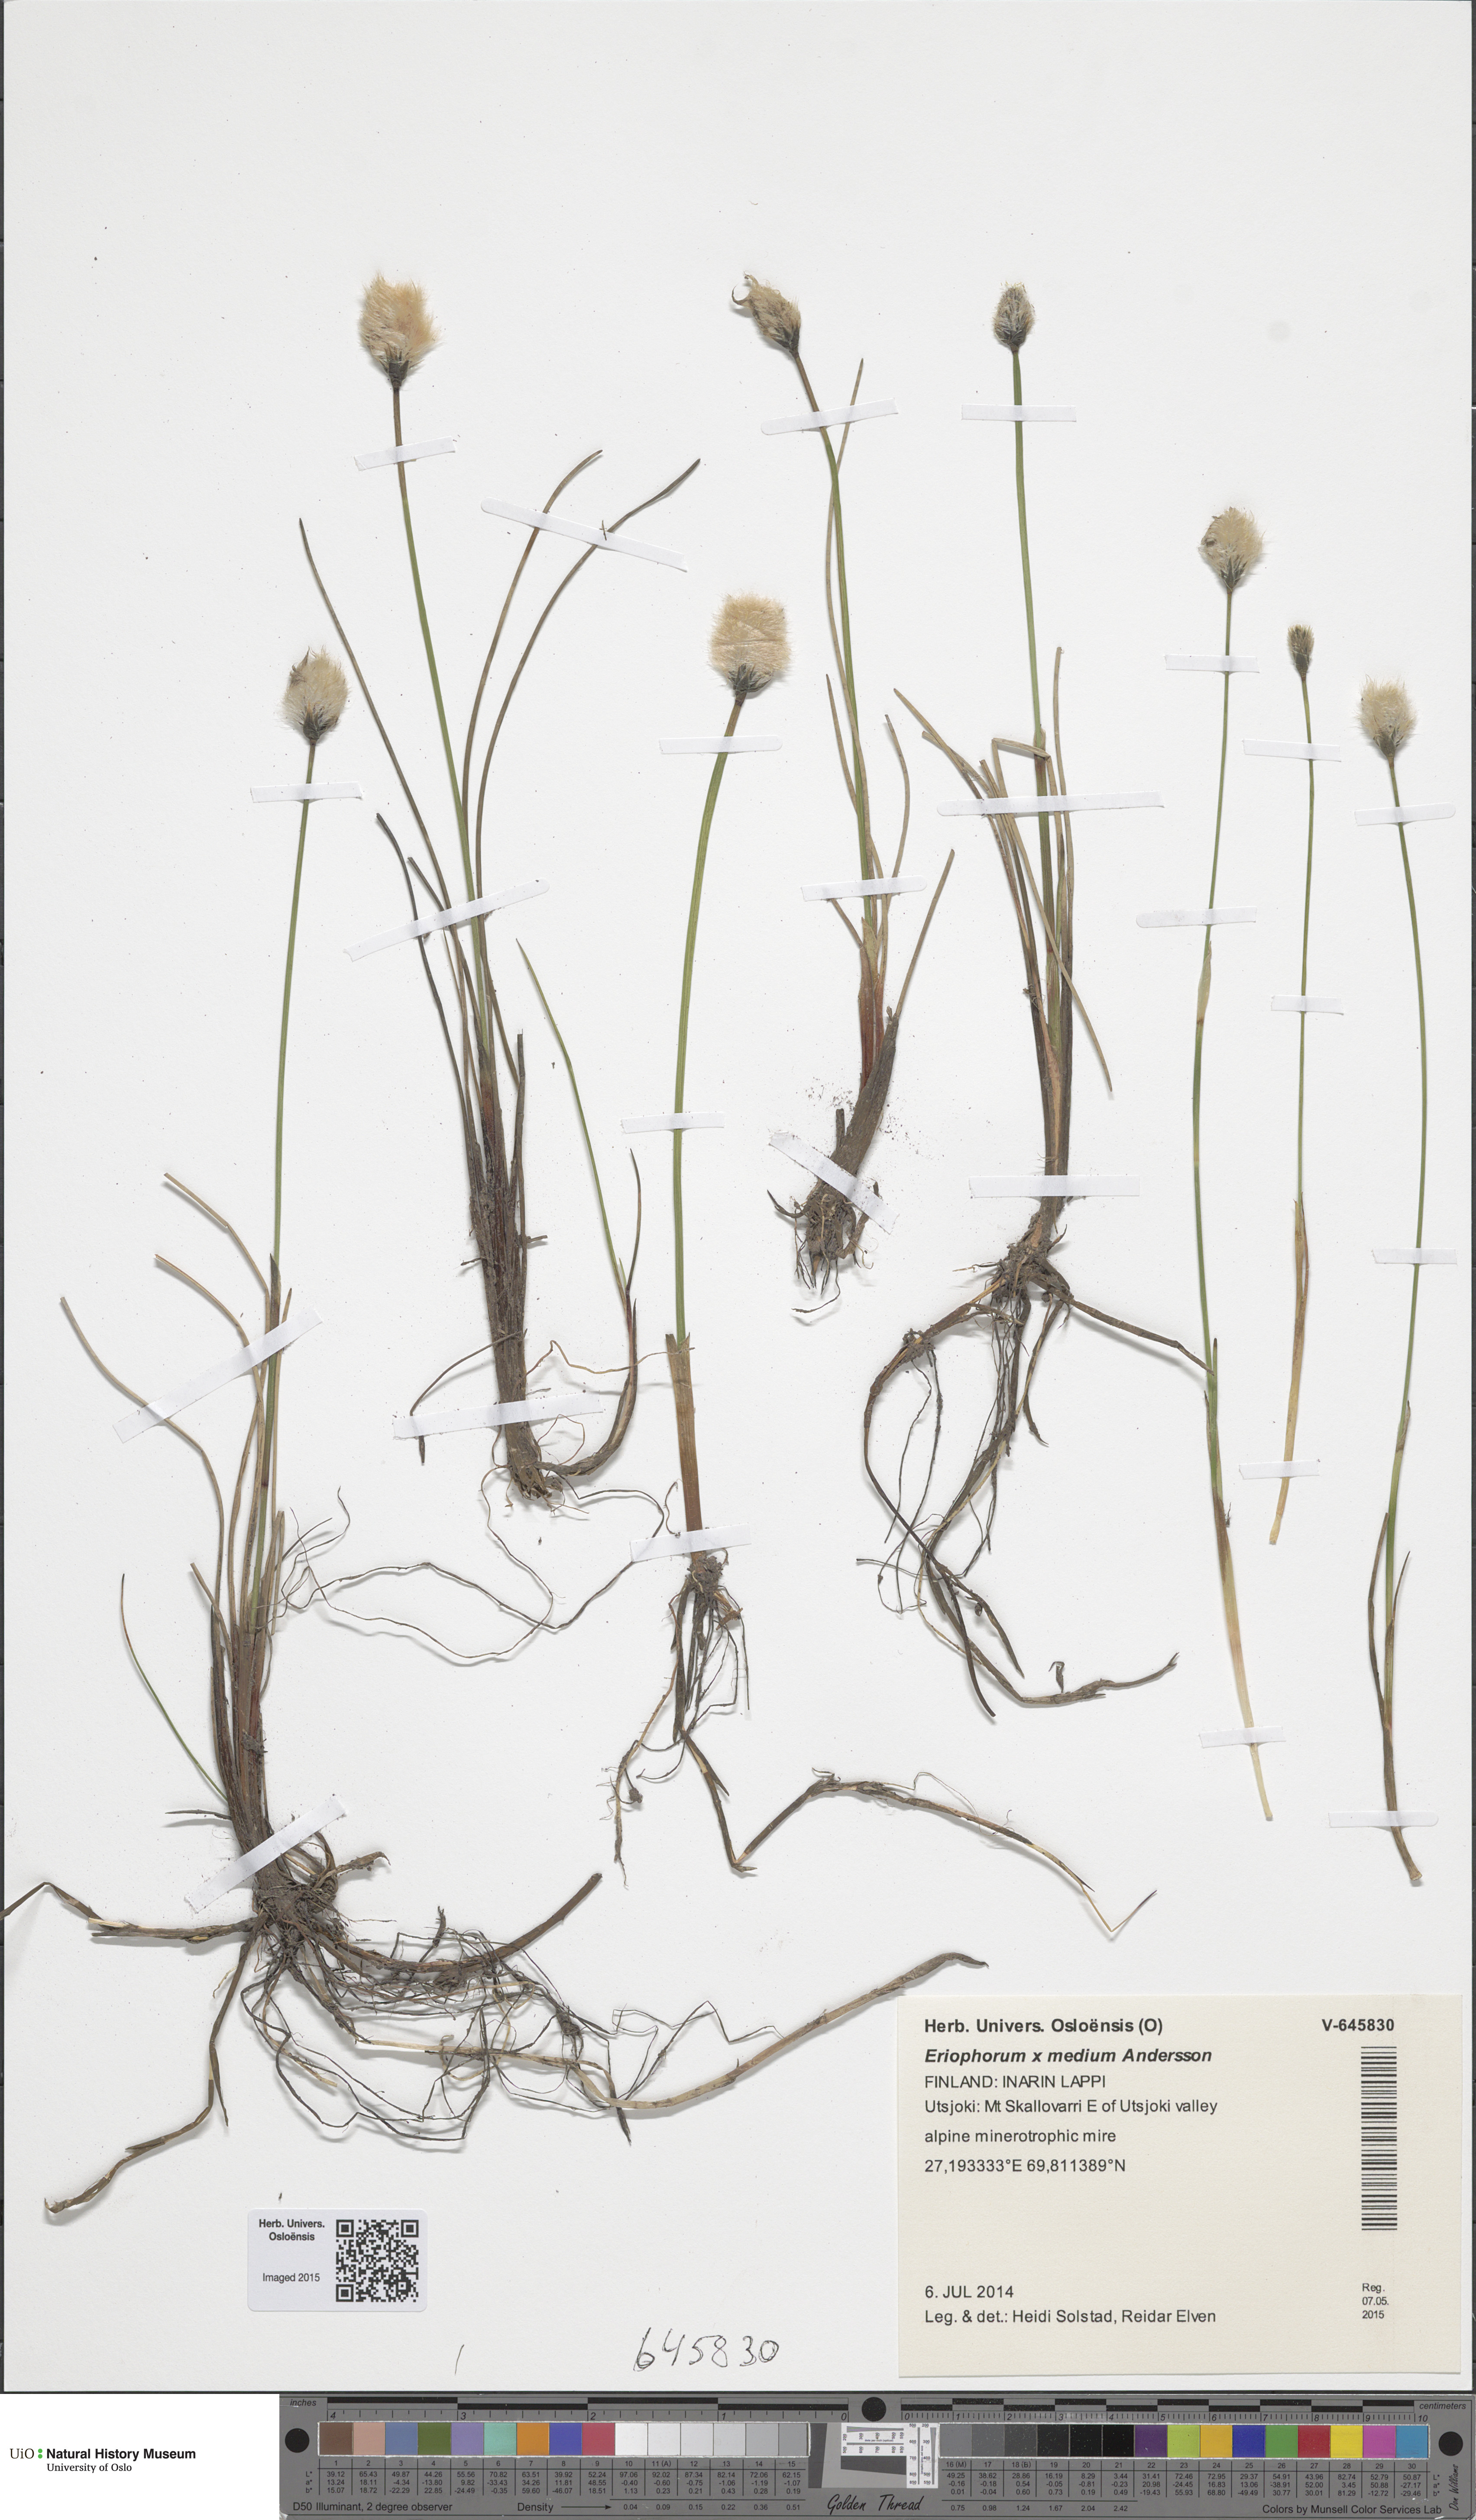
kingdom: Plantae
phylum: Tracheophyta
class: Liliopsida
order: Poales
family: Cyperaceae
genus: Eriophorum
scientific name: Eriophorum medium
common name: Intermediate cottongrass
